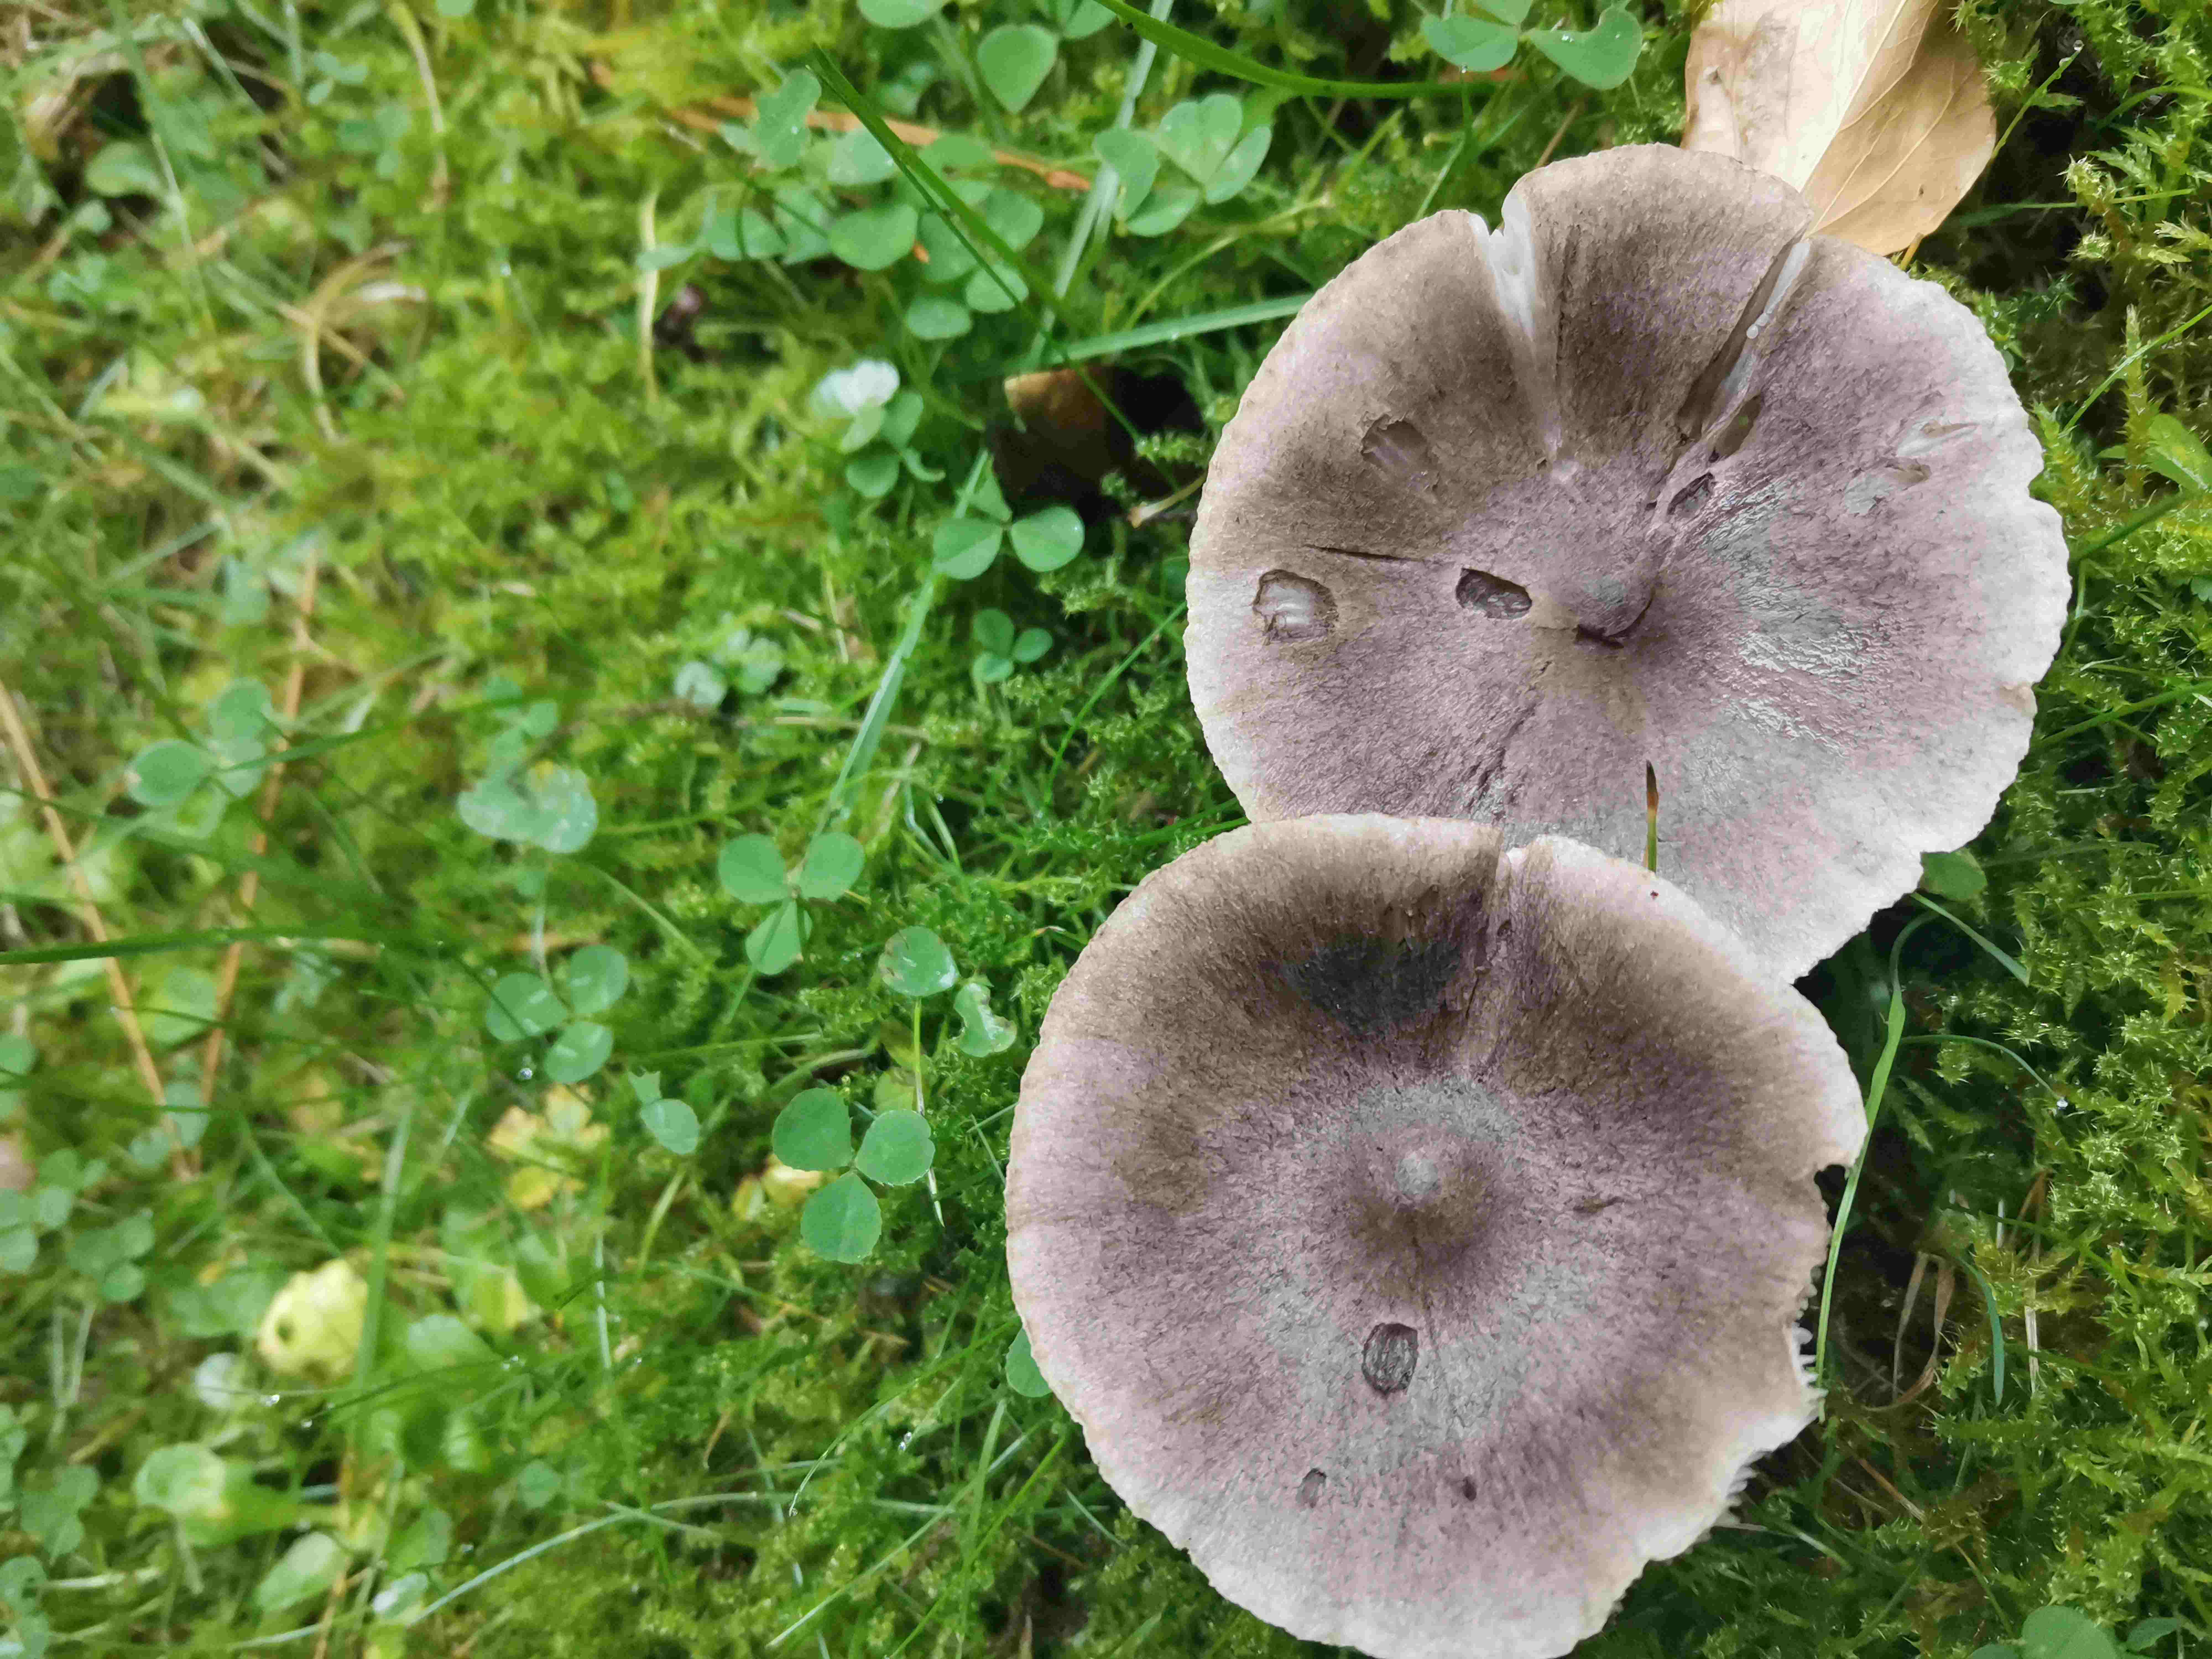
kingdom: Fungi
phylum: Basidiomycota
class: Agaricomycetes
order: Agaricales
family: Tricholomataceae
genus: Tricholoma
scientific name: Tricholoma terreum
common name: jordfarvet ridderhat
